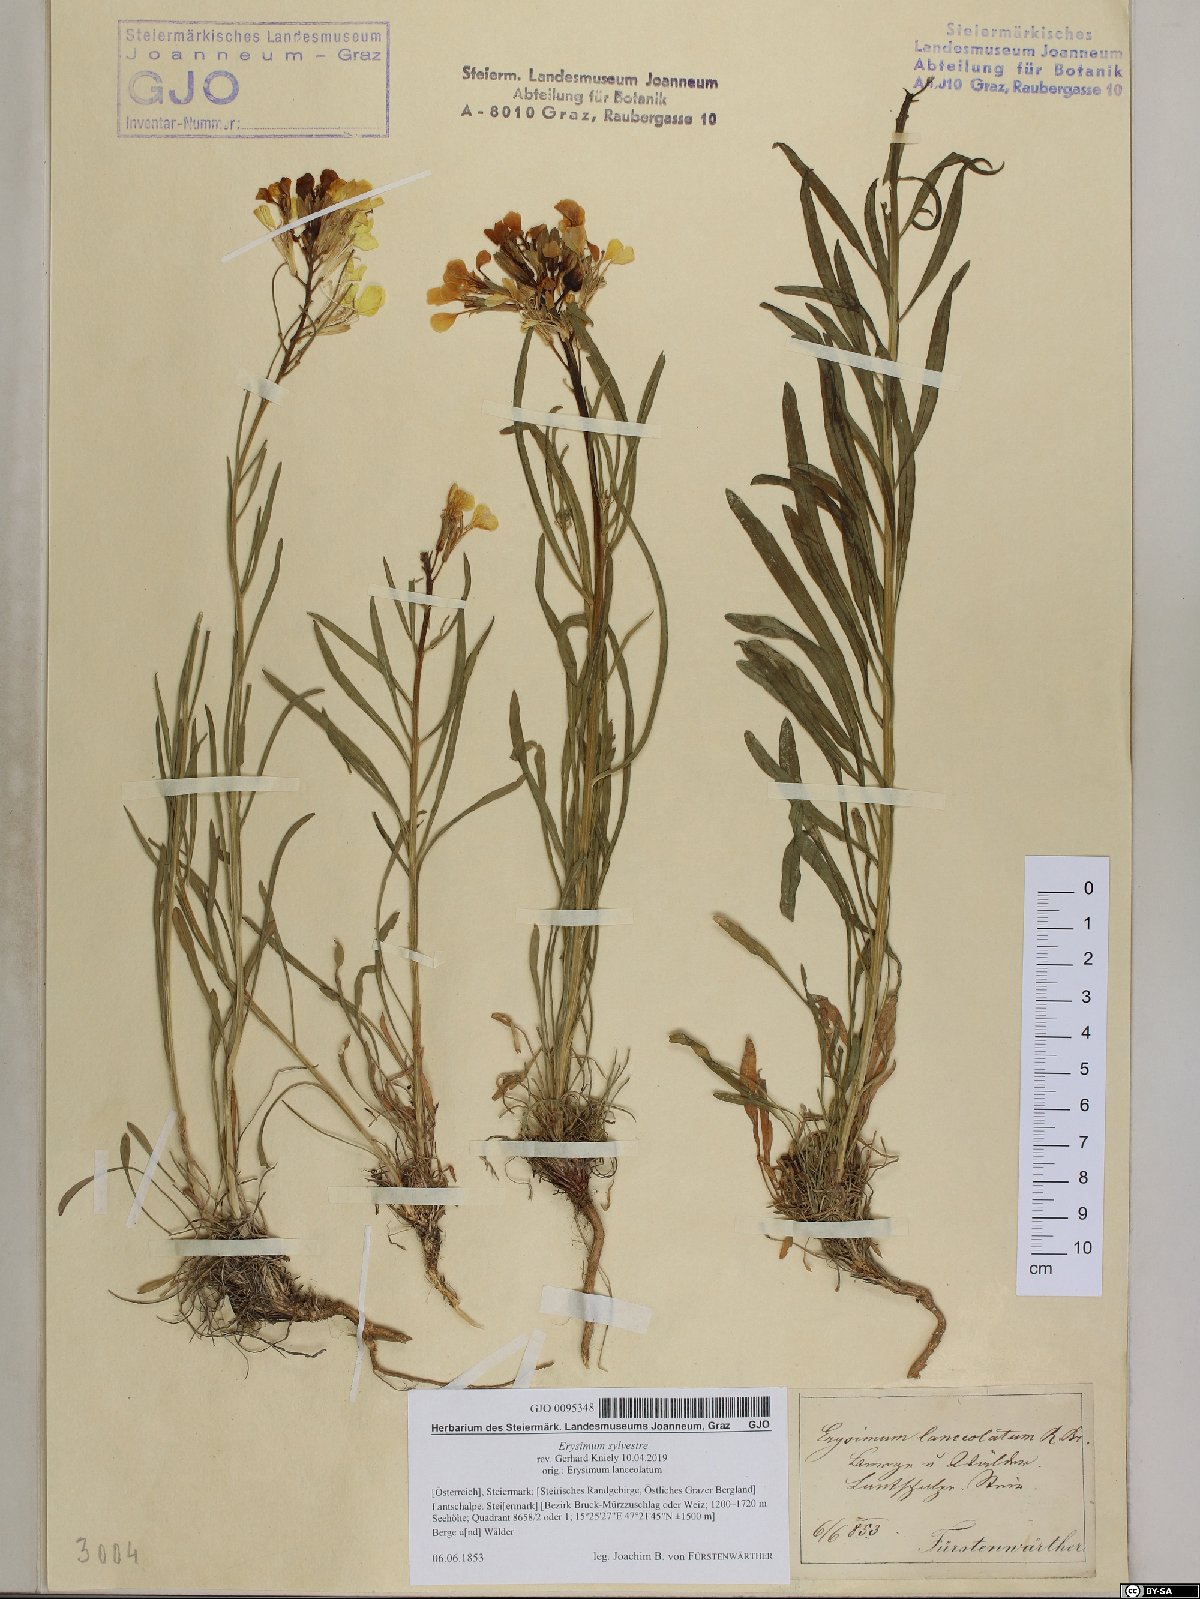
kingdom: Plantae
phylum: Tracheophyta
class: Magnoliopsida
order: Brassicales
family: Brassicaceae
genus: Erysimum
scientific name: Erysimum sylvestre
